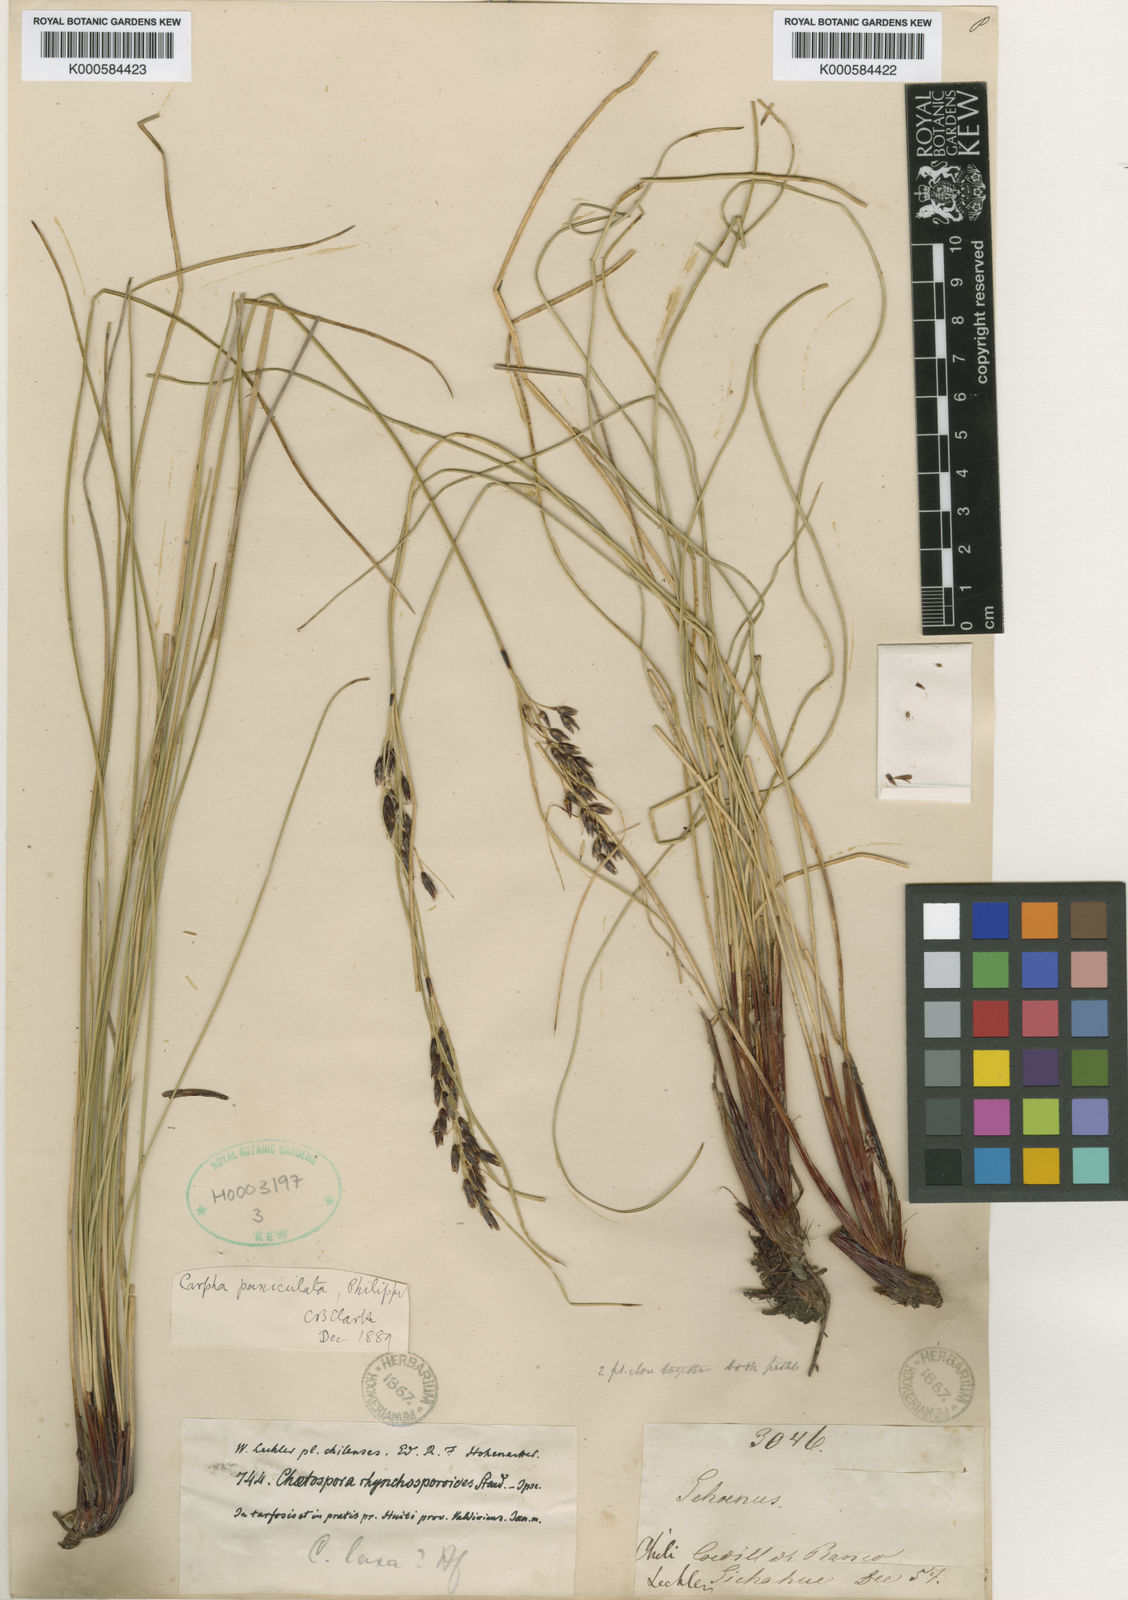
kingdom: Plantae
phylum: Tracheophyta
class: Liliopsida
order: Poales
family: Cyperaceae
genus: Schoenus
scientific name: Schoenus
